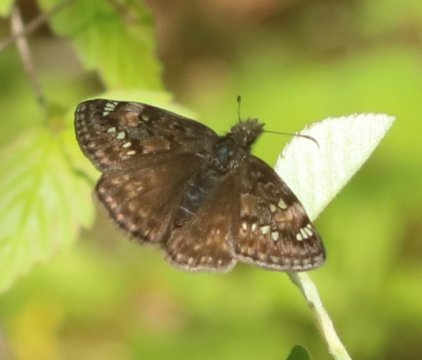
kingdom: Animalia
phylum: Arthropoda
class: Insecta
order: Lepidoptera
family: Hesperiidae
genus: Gesta
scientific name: Gesta
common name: Juvenal's Duskywing
